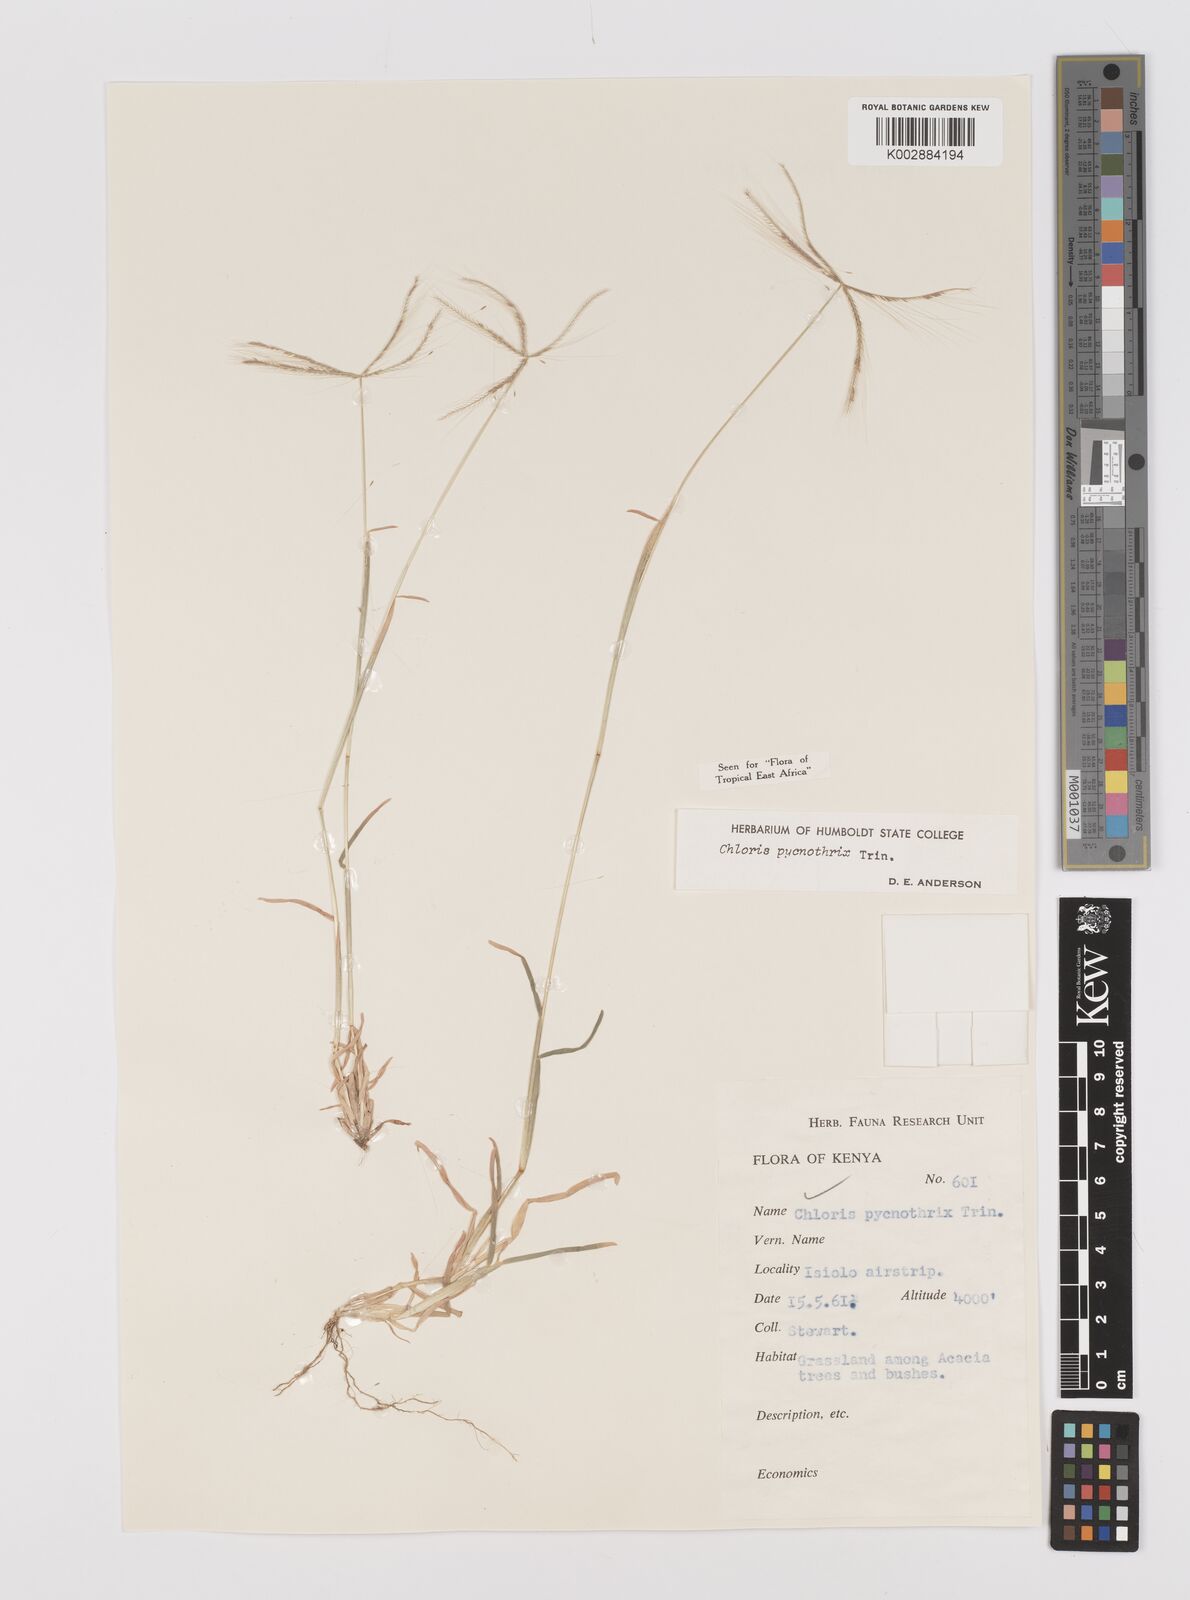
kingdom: Plantae
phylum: Tracheophyta
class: Liliopsida
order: Poales
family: Poaceae
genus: Chloris
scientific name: Chloris pycnothrix
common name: Spiderweb chloris
